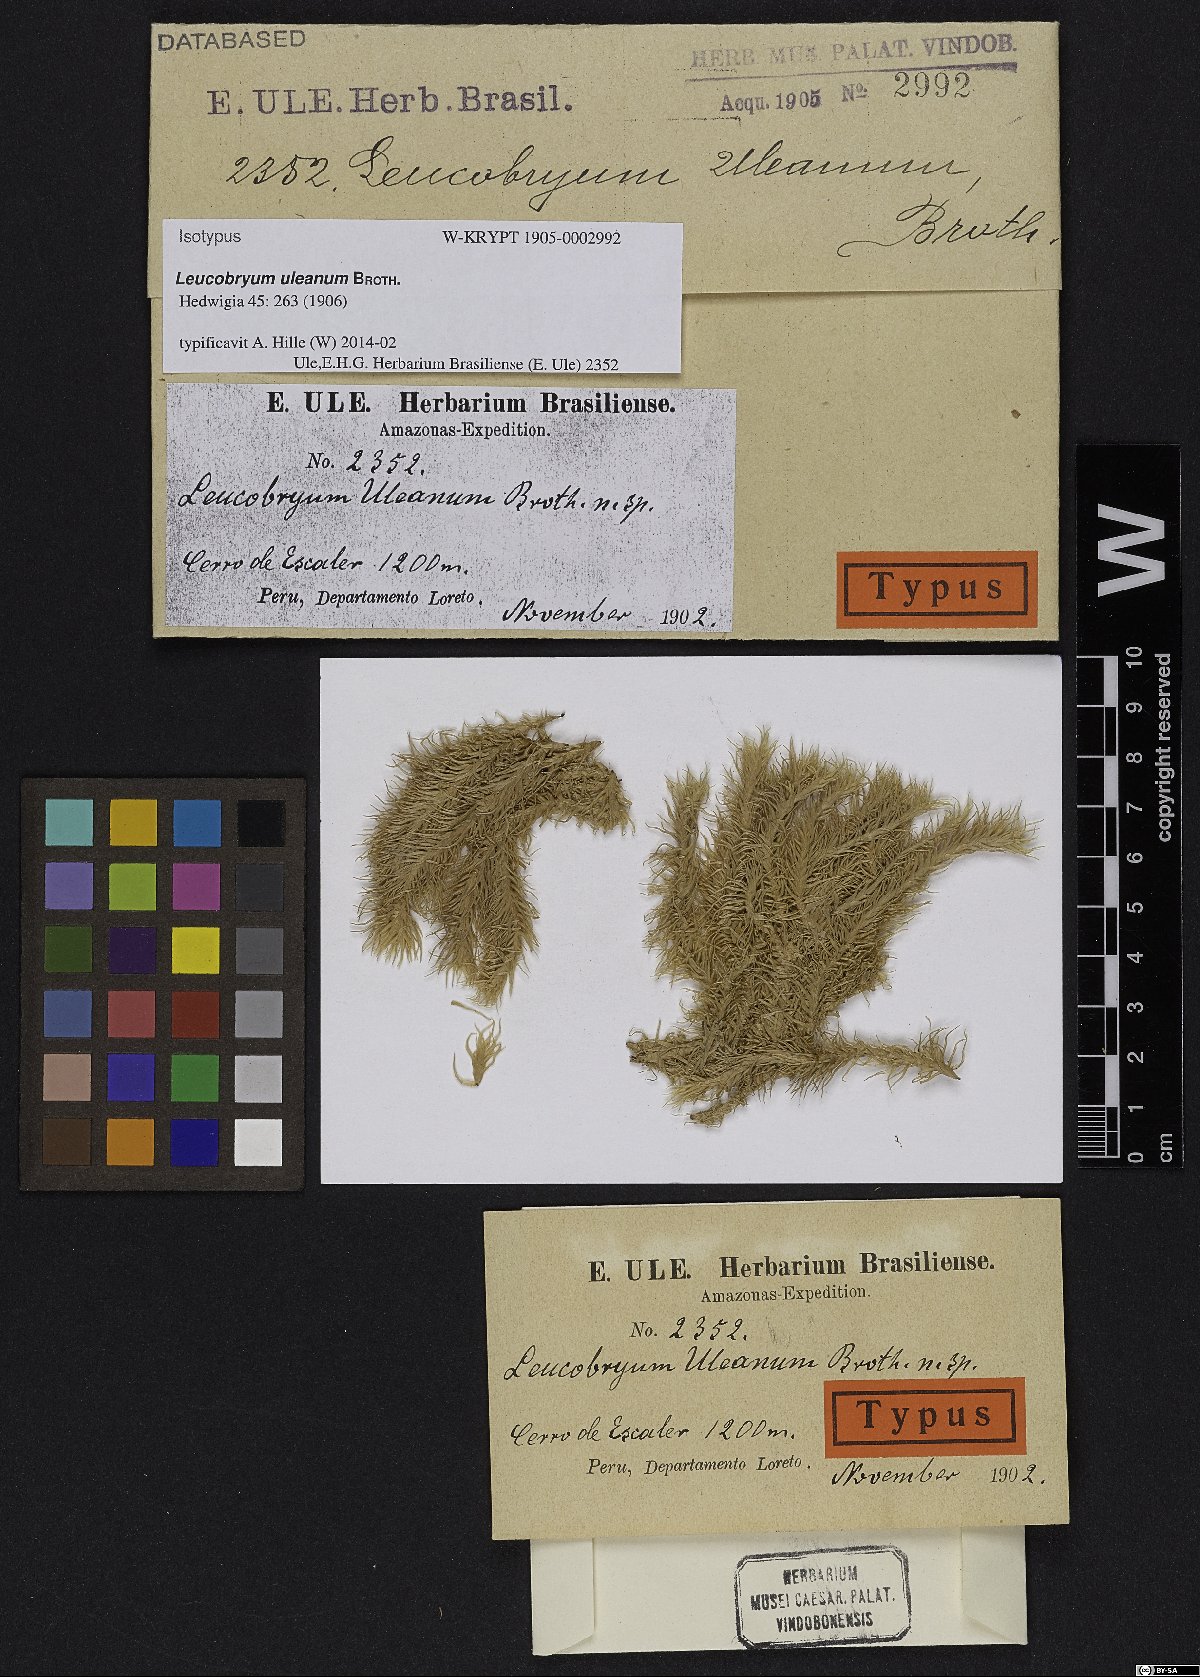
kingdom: Plantae
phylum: Bryophyta
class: Bryopsida
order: Dicranales
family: Leucobryaceae
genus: Leucobryum
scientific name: Leucobryum uleanum
